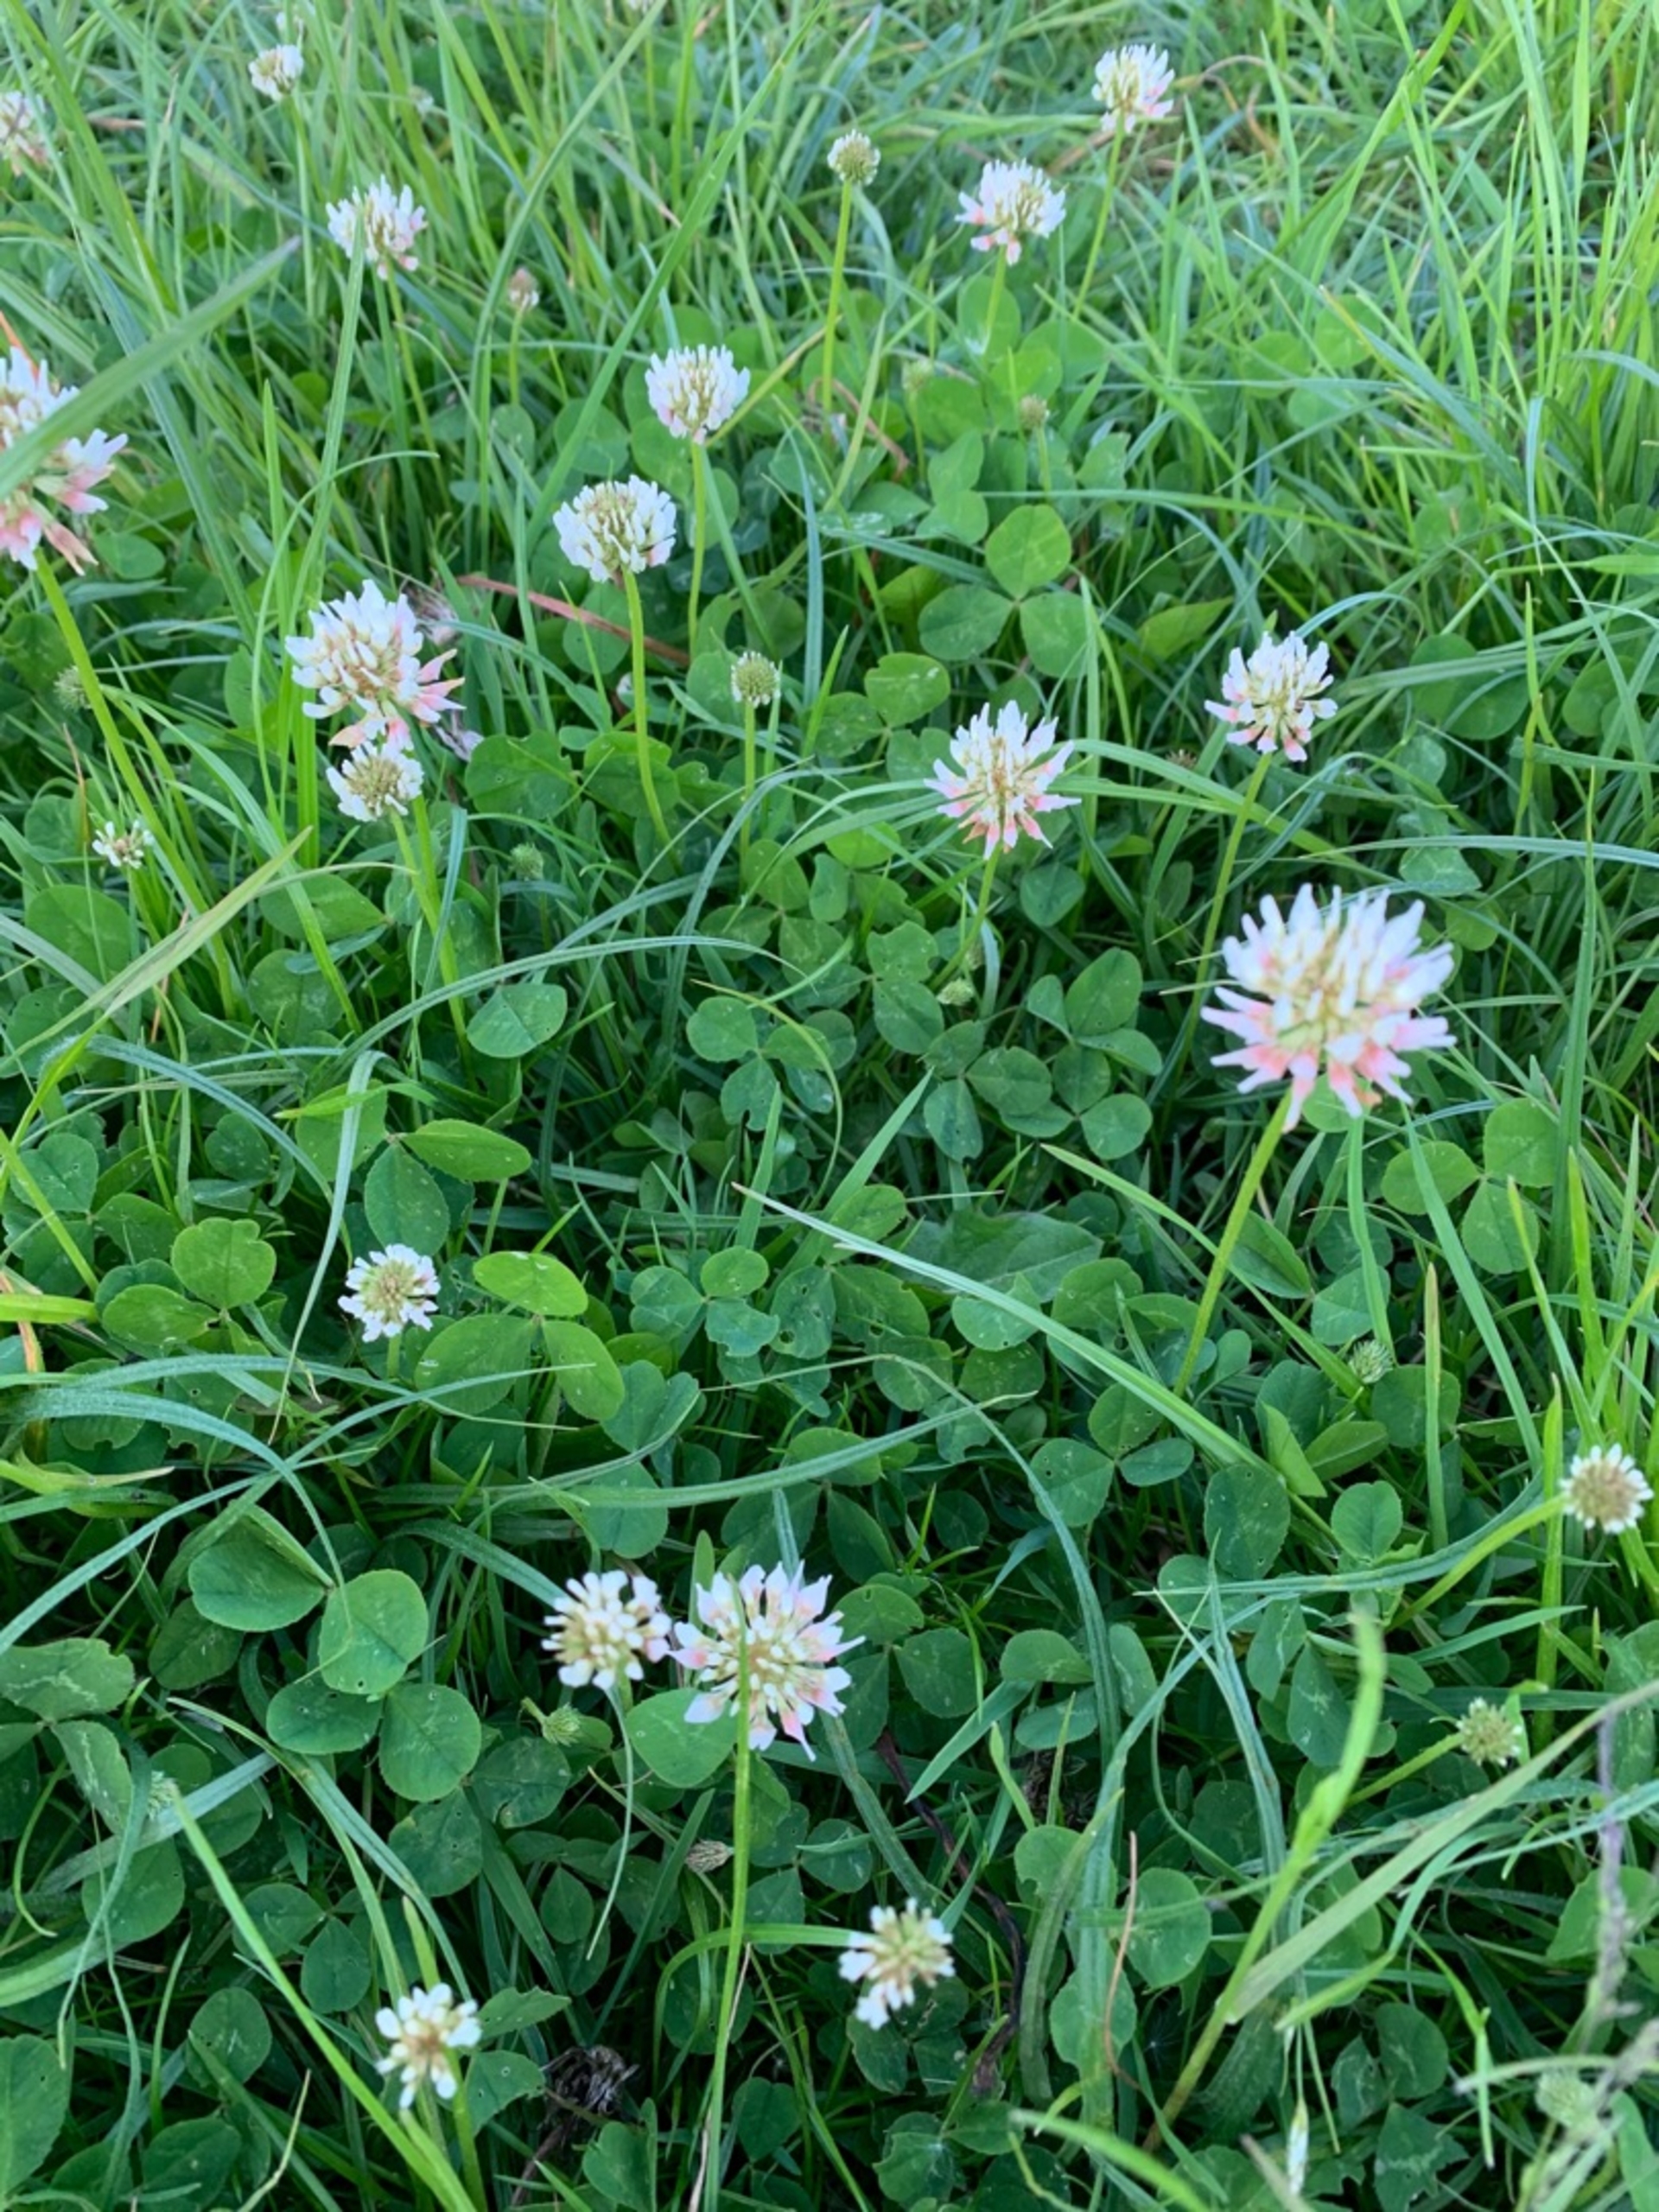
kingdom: Plantae
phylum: Tracheophyta
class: Magnoliopsida
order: Fabales
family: Fabaceae
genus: Trifolium
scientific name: Trifolium repens
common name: Hvid-kløver
